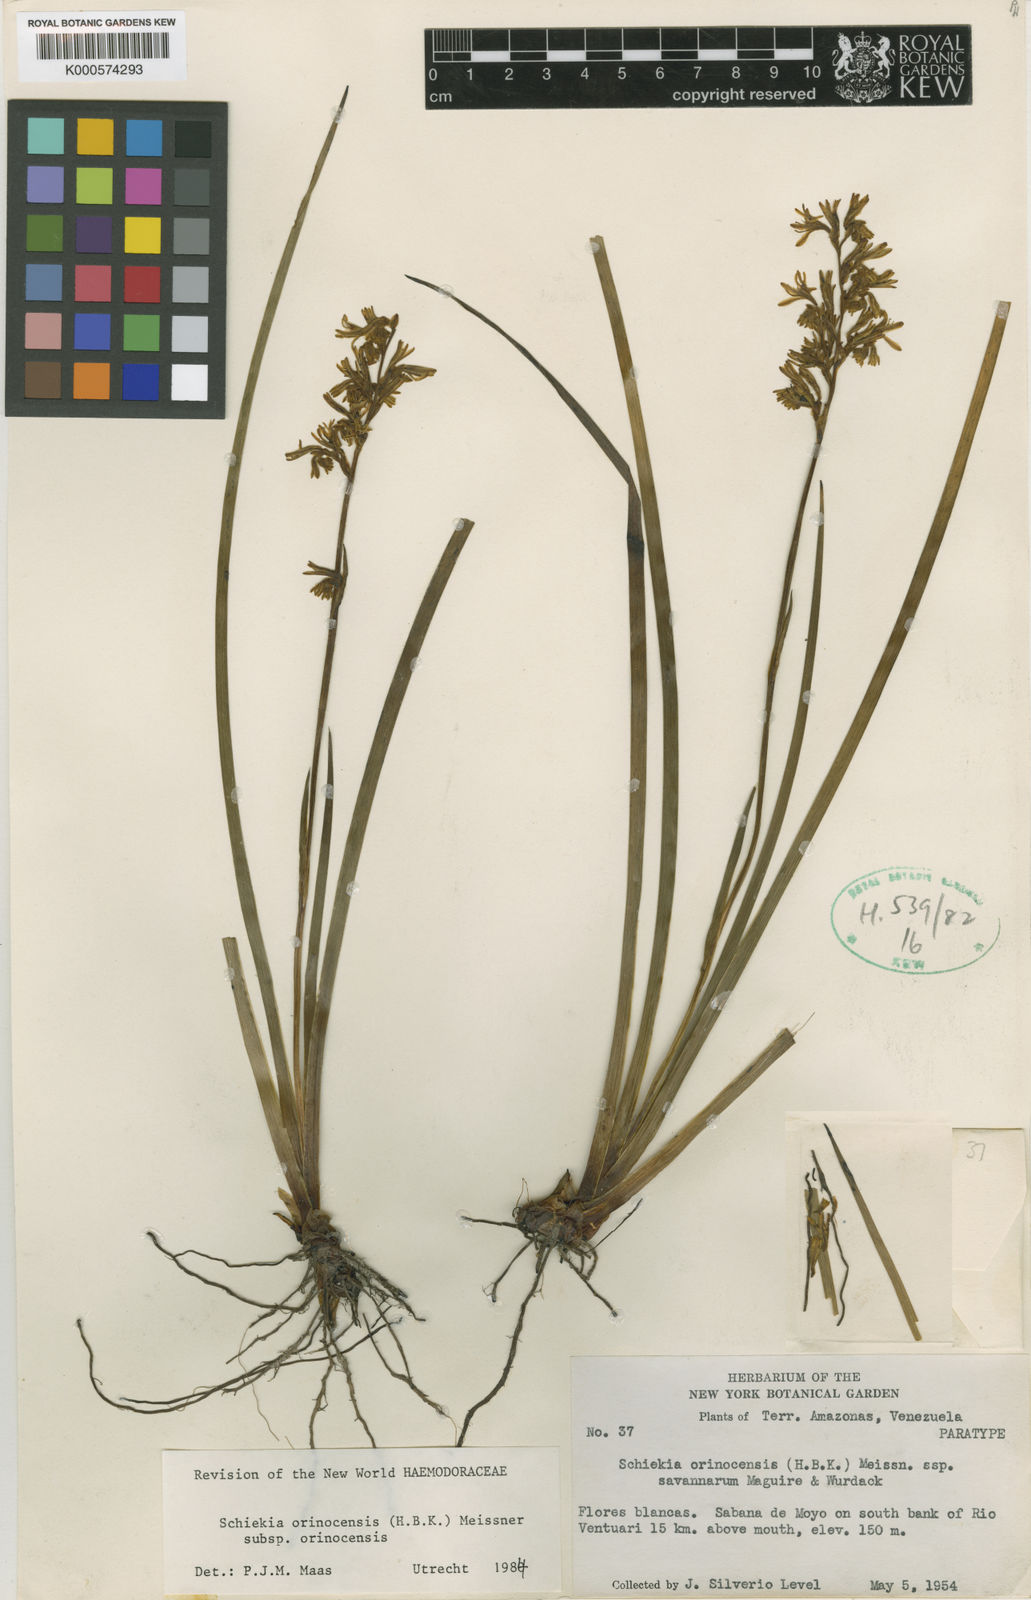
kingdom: Plantae
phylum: Tracheophyta
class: Liliopsida
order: Commelinales
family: Haemodoraceae
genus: Schiekia
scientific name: Schiekia orinocensis
